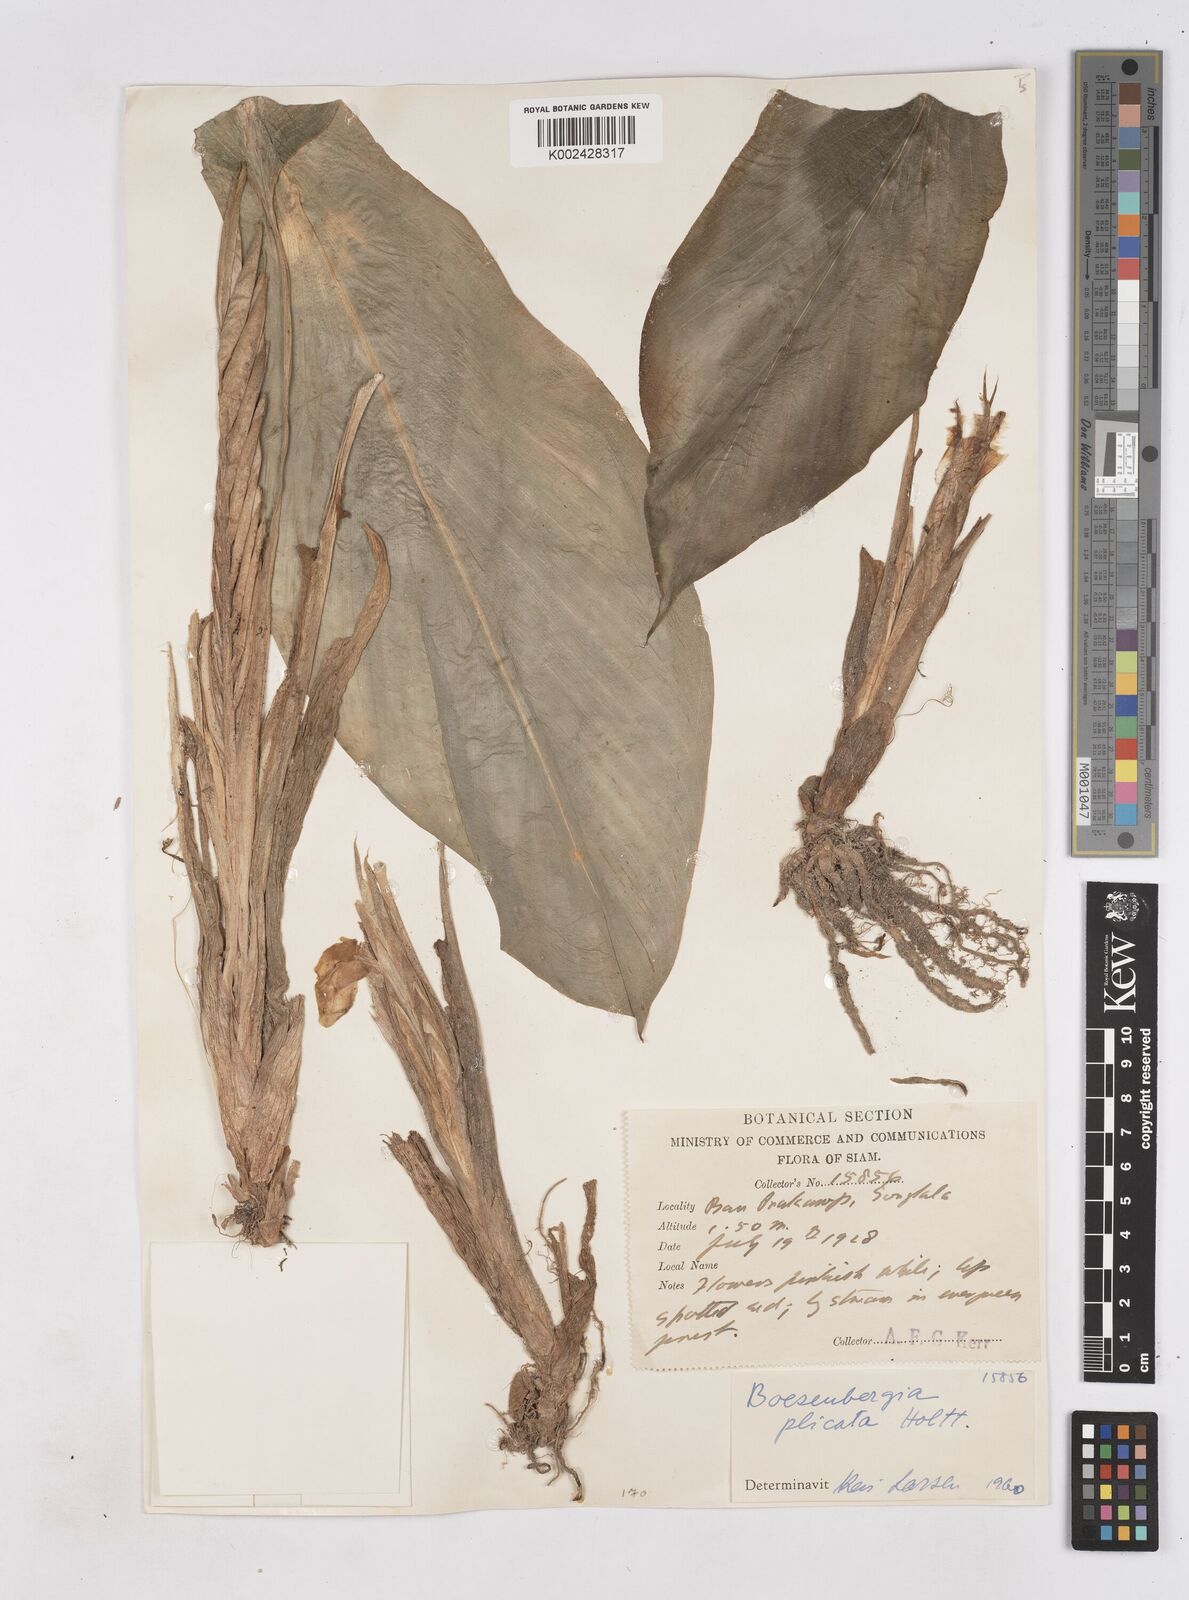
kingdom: Plantae
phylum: Tracheophyta
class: Liliopsida
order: Zingiberales
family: Zingiberaceae
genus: Boesenbergia
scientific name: Boesenbergia plicata
